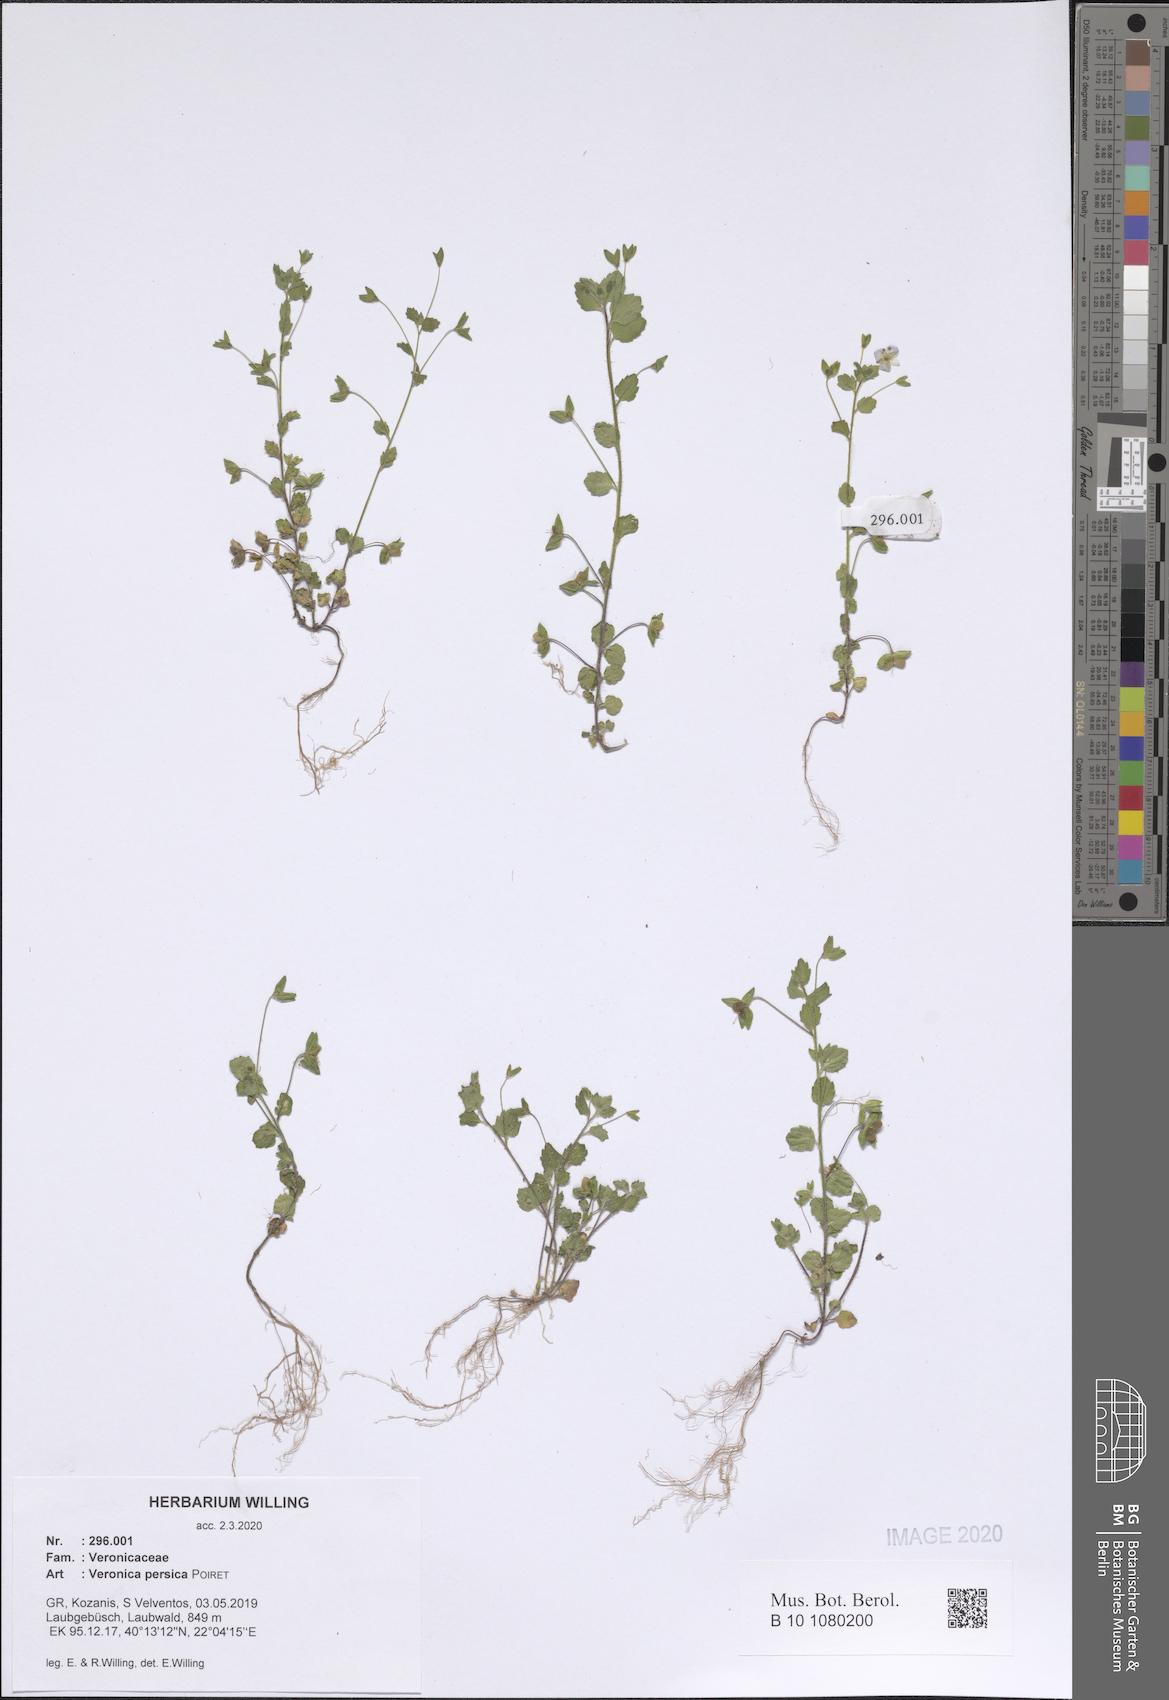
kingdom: Plantae
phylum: Tracheophyta
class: Magnoliopsida
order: Lamiales
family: Plantaginaceae
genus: Veronica
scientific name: Veronica persica
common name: Common field-speedwell
